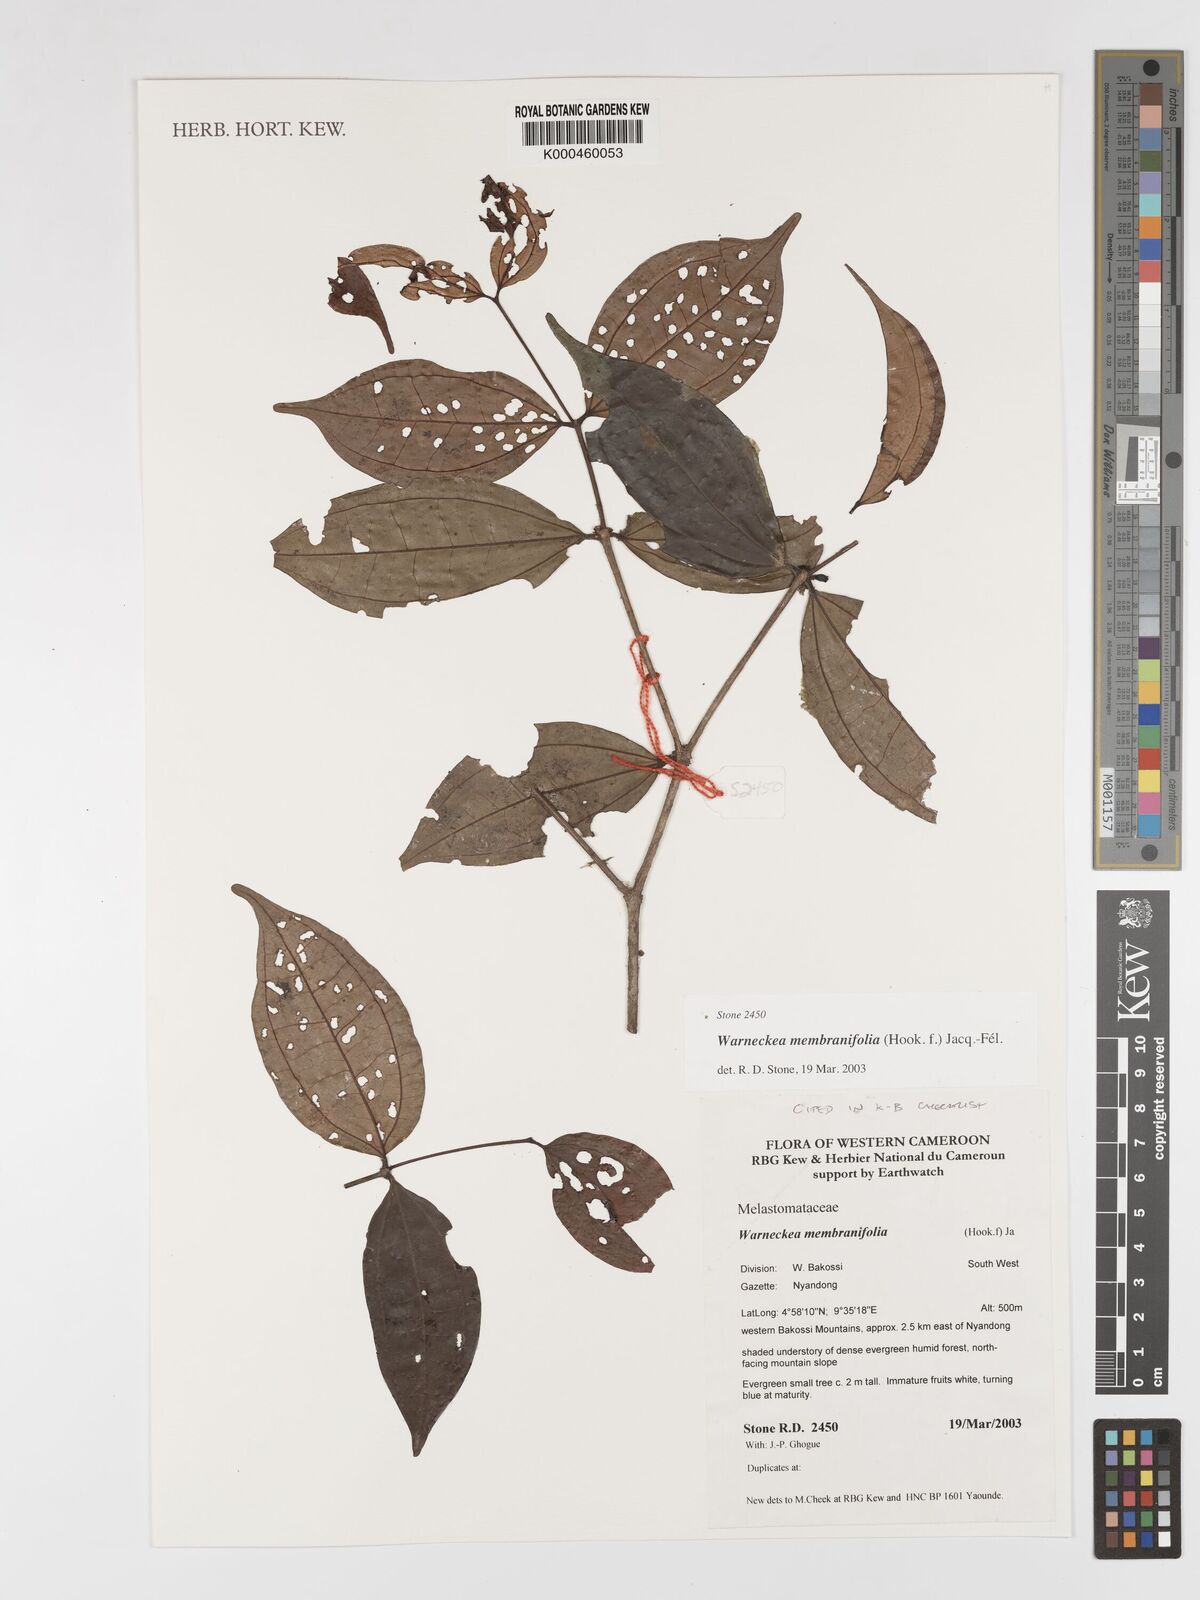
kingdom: Plantae
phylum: Tracheophyta
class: Magnoliopsida
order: Myrtales
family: Melastomataceae
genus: Warneckea
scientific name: Warneckea
